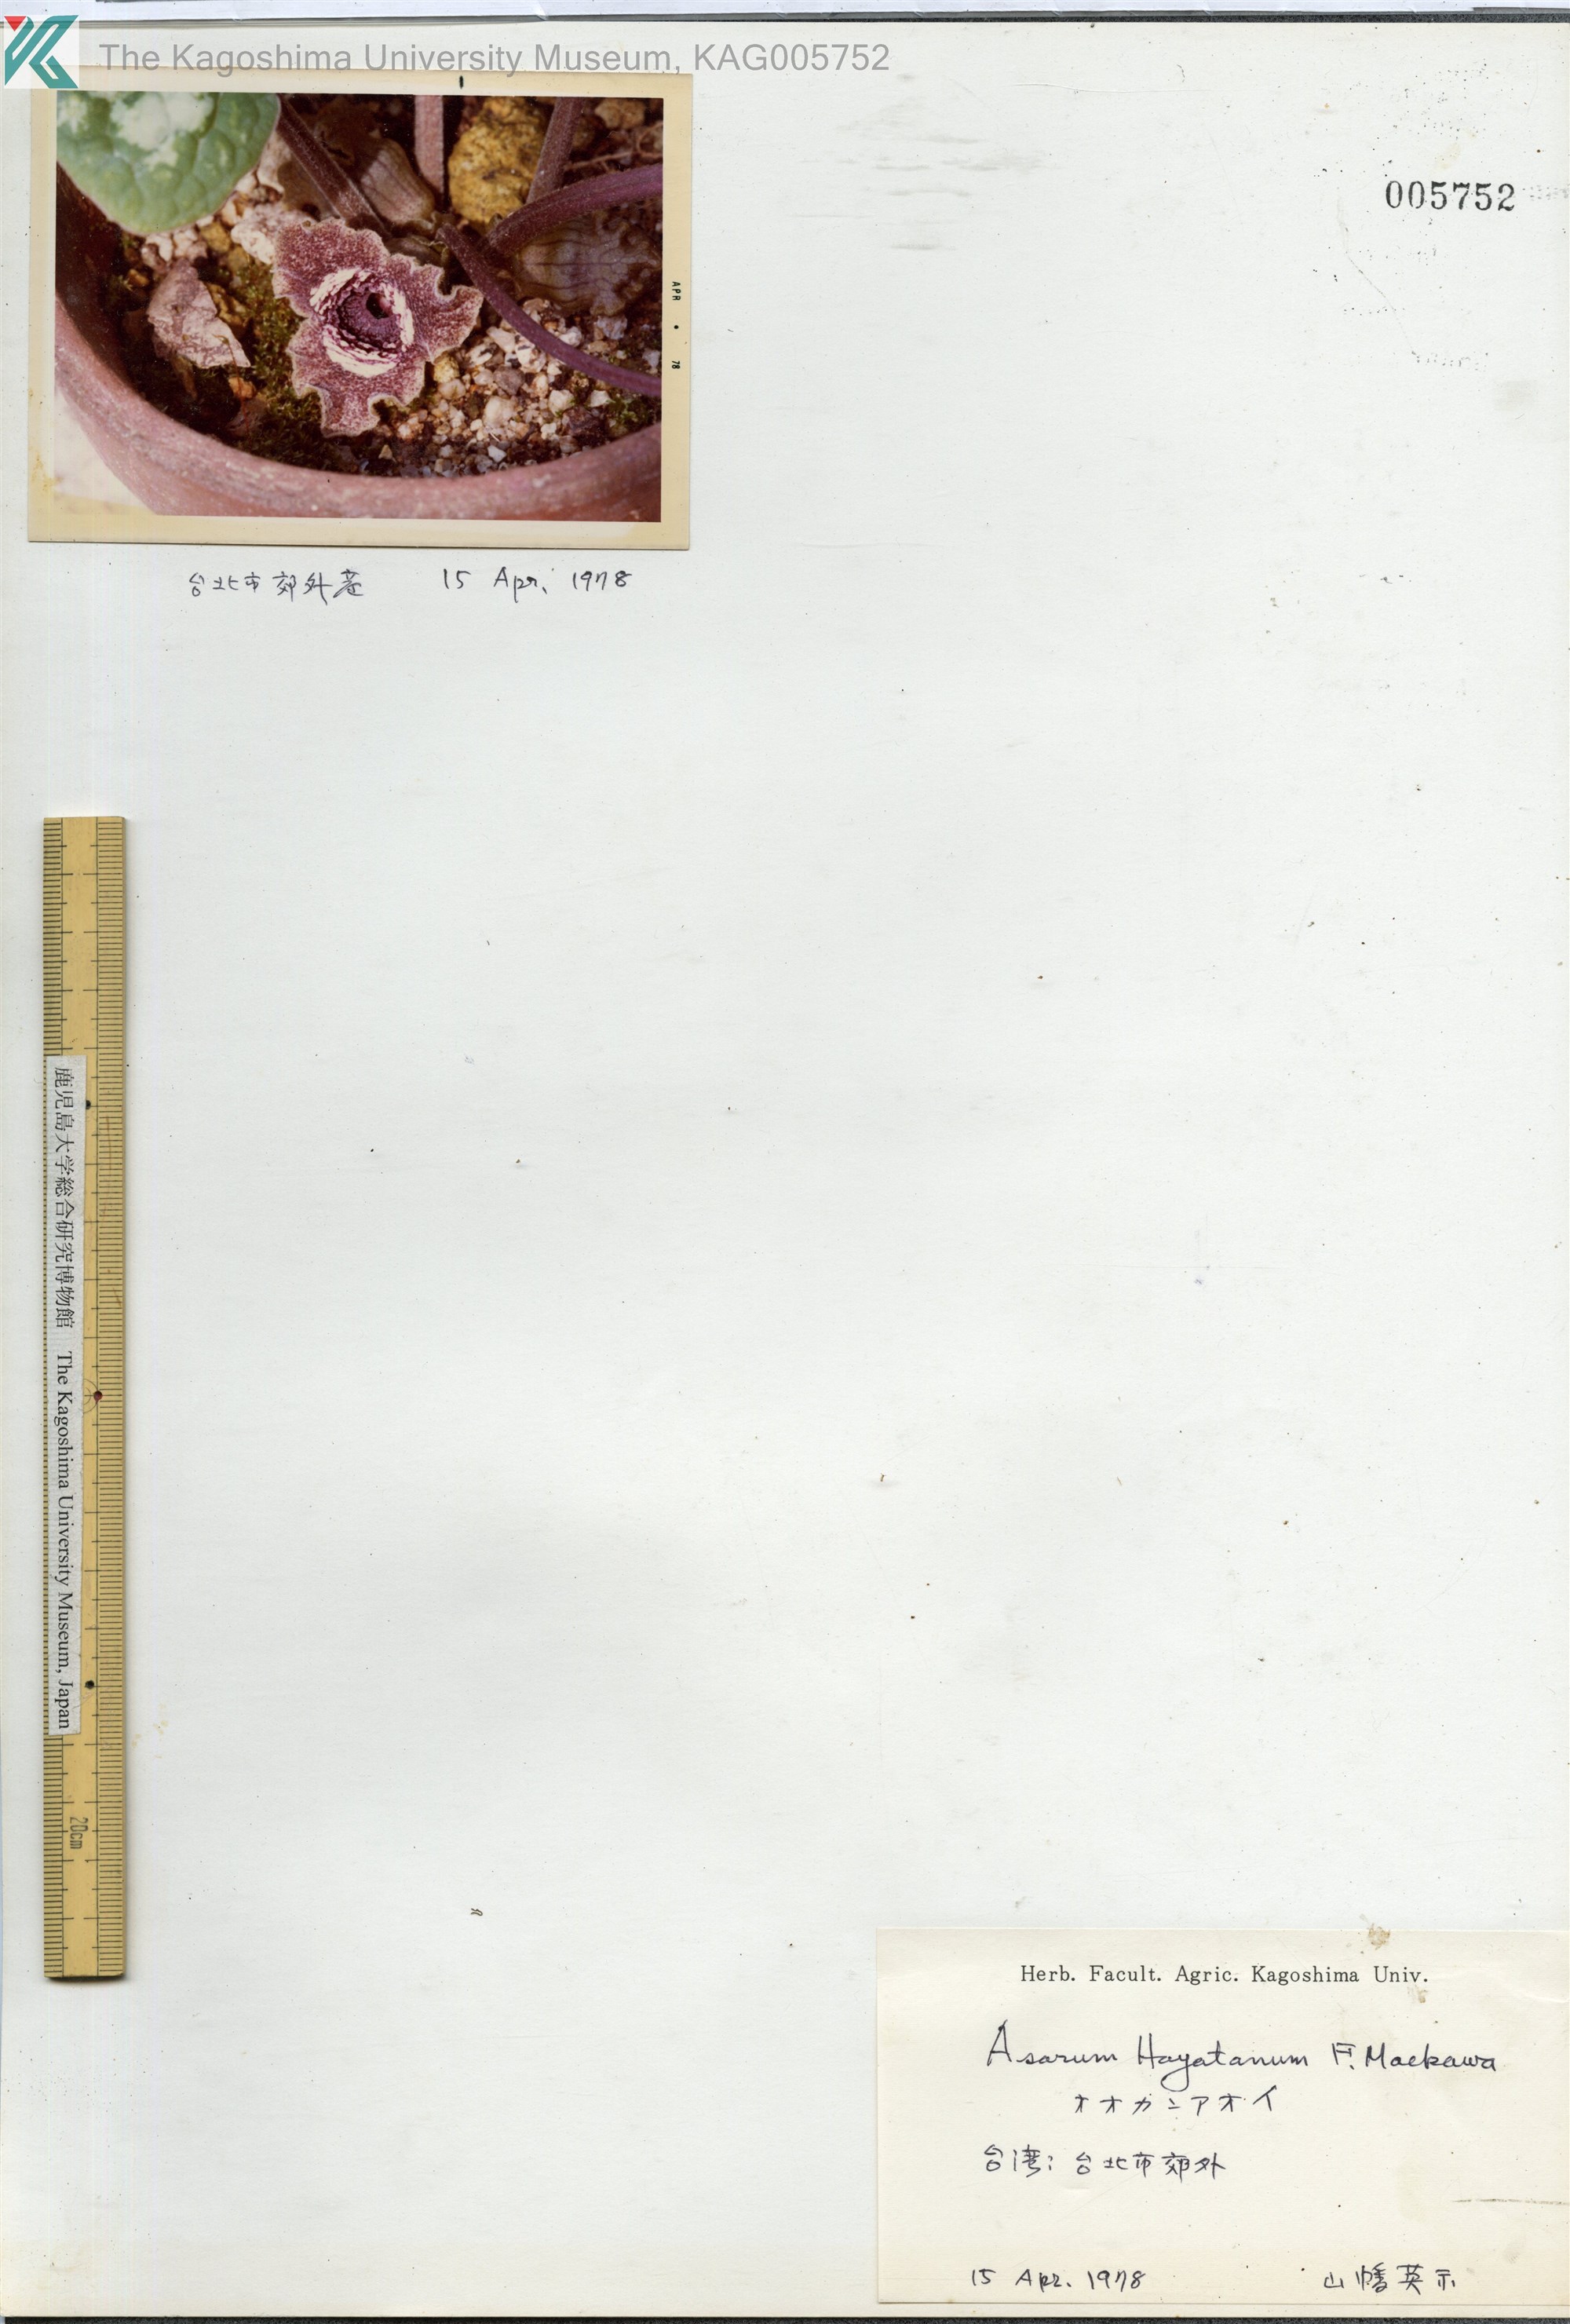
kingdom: Plantae
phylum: Tracheophyta
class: Magnoliopsida
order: Piperales
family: Aristolochiaceae
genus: Asarum
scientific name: Asarum
